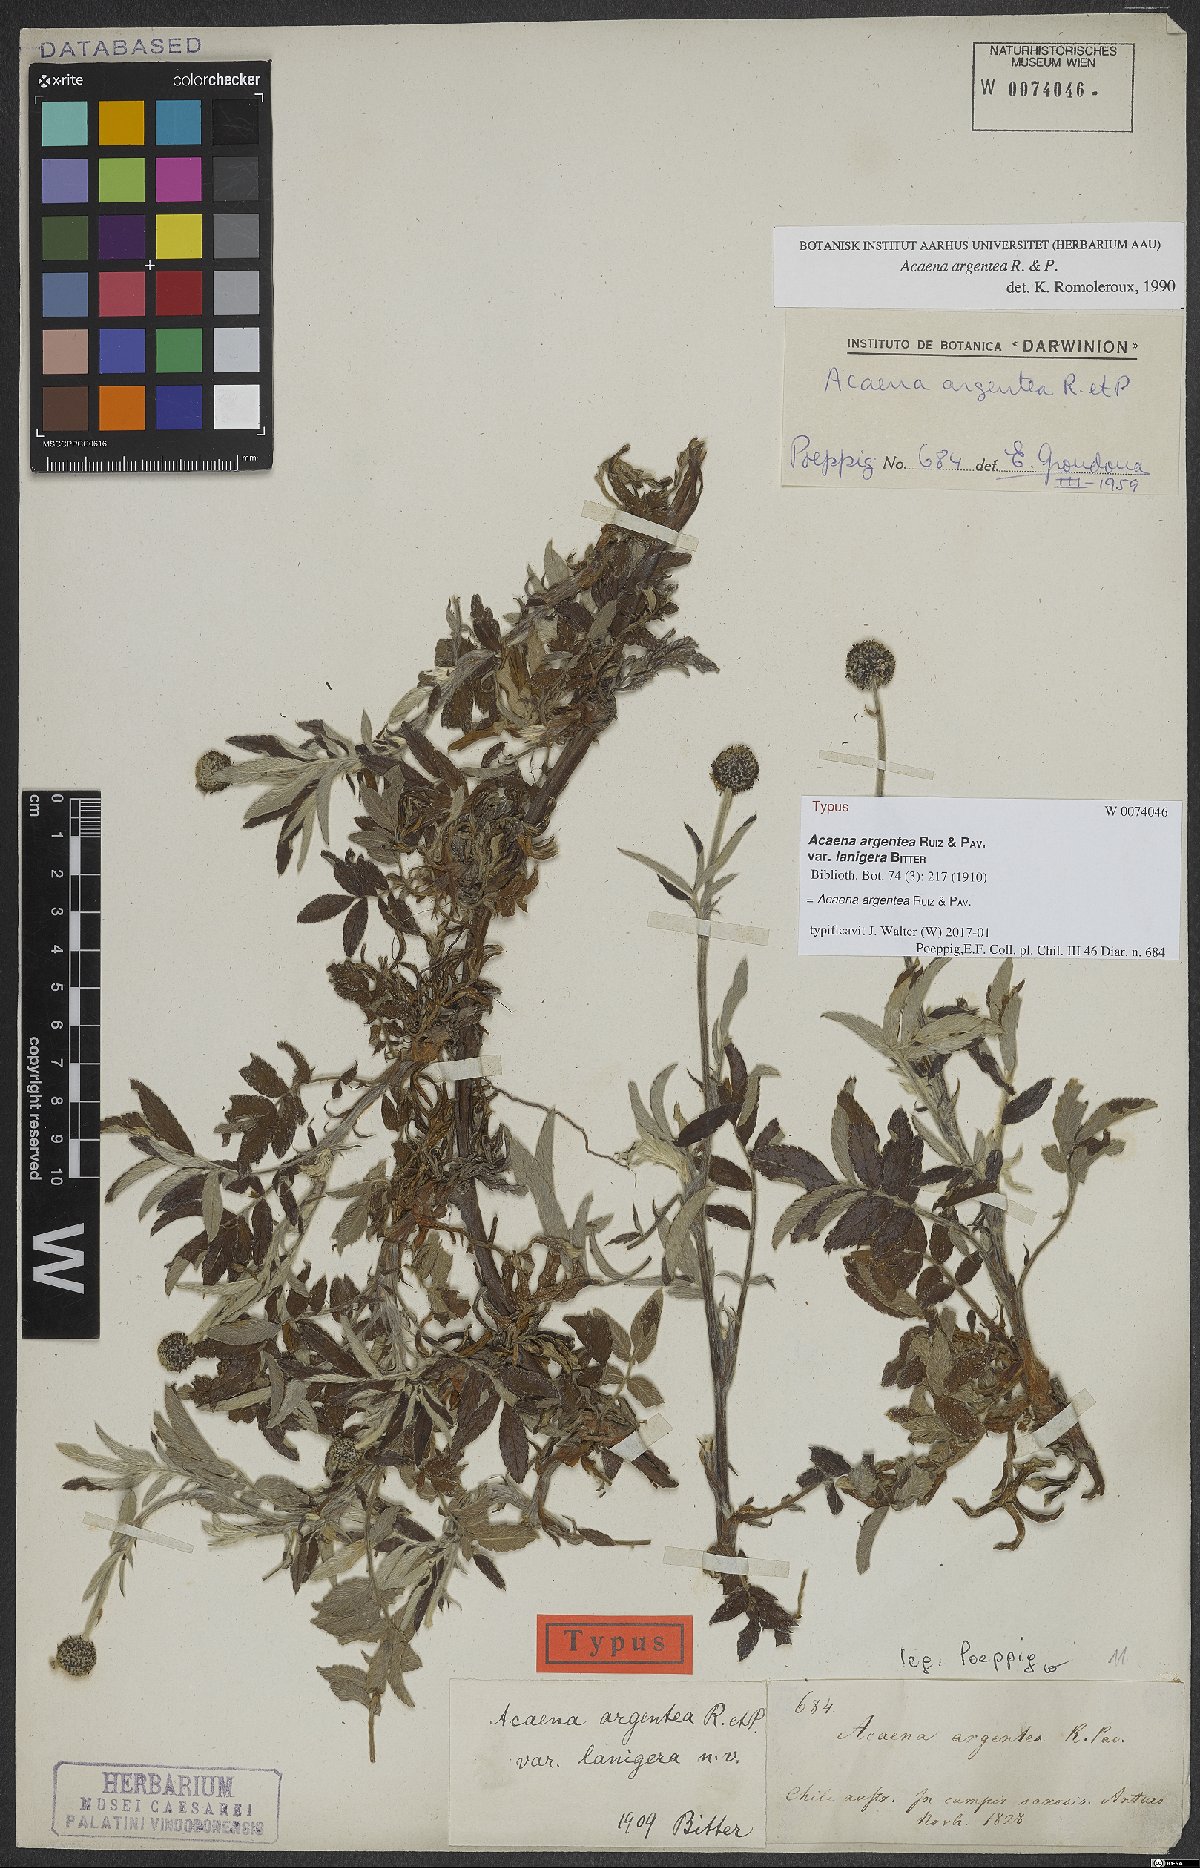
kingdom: Plantae
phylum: Tracheophyta
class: Magnoliopsida
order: Rosales
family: Rosaceae
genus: Acaena
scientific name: Acaena argentea
